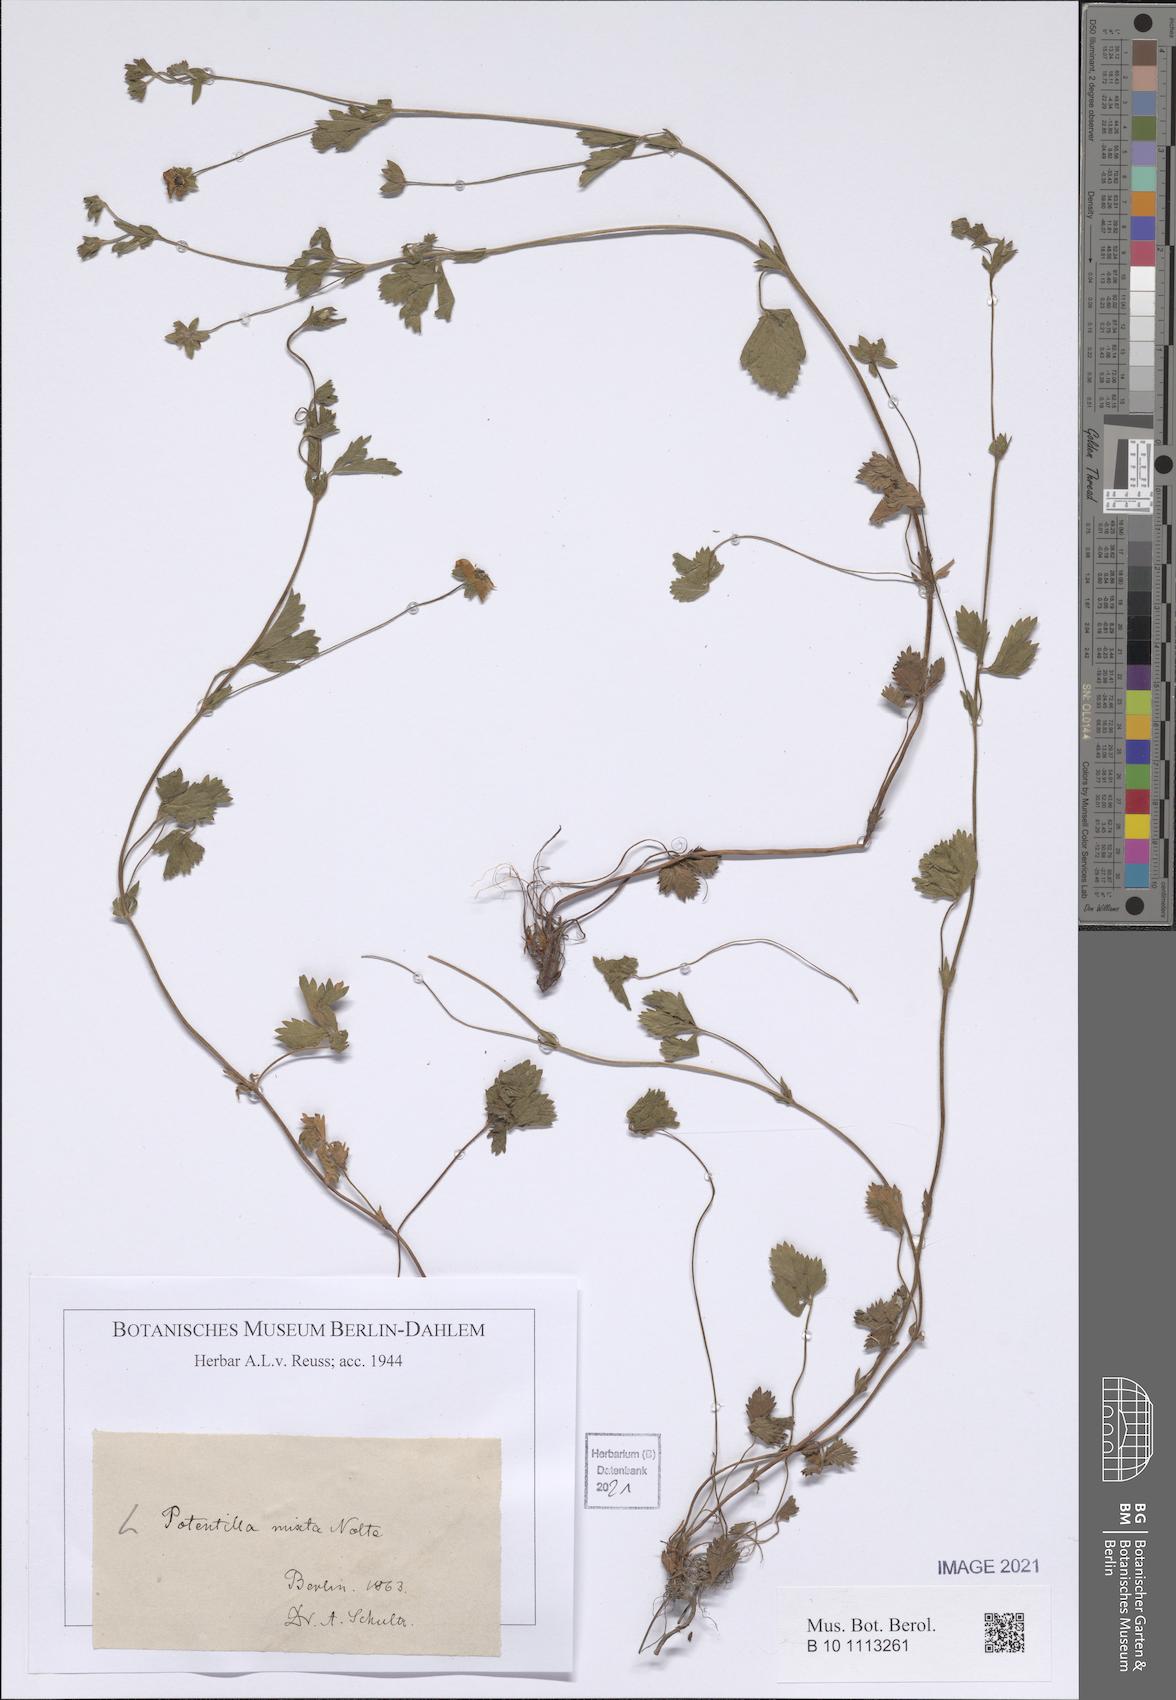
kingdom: Plantae
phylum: Tracheophyta
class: Magnoliopsida
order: Rosales
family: Rosaceae
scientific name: Rosaceae
